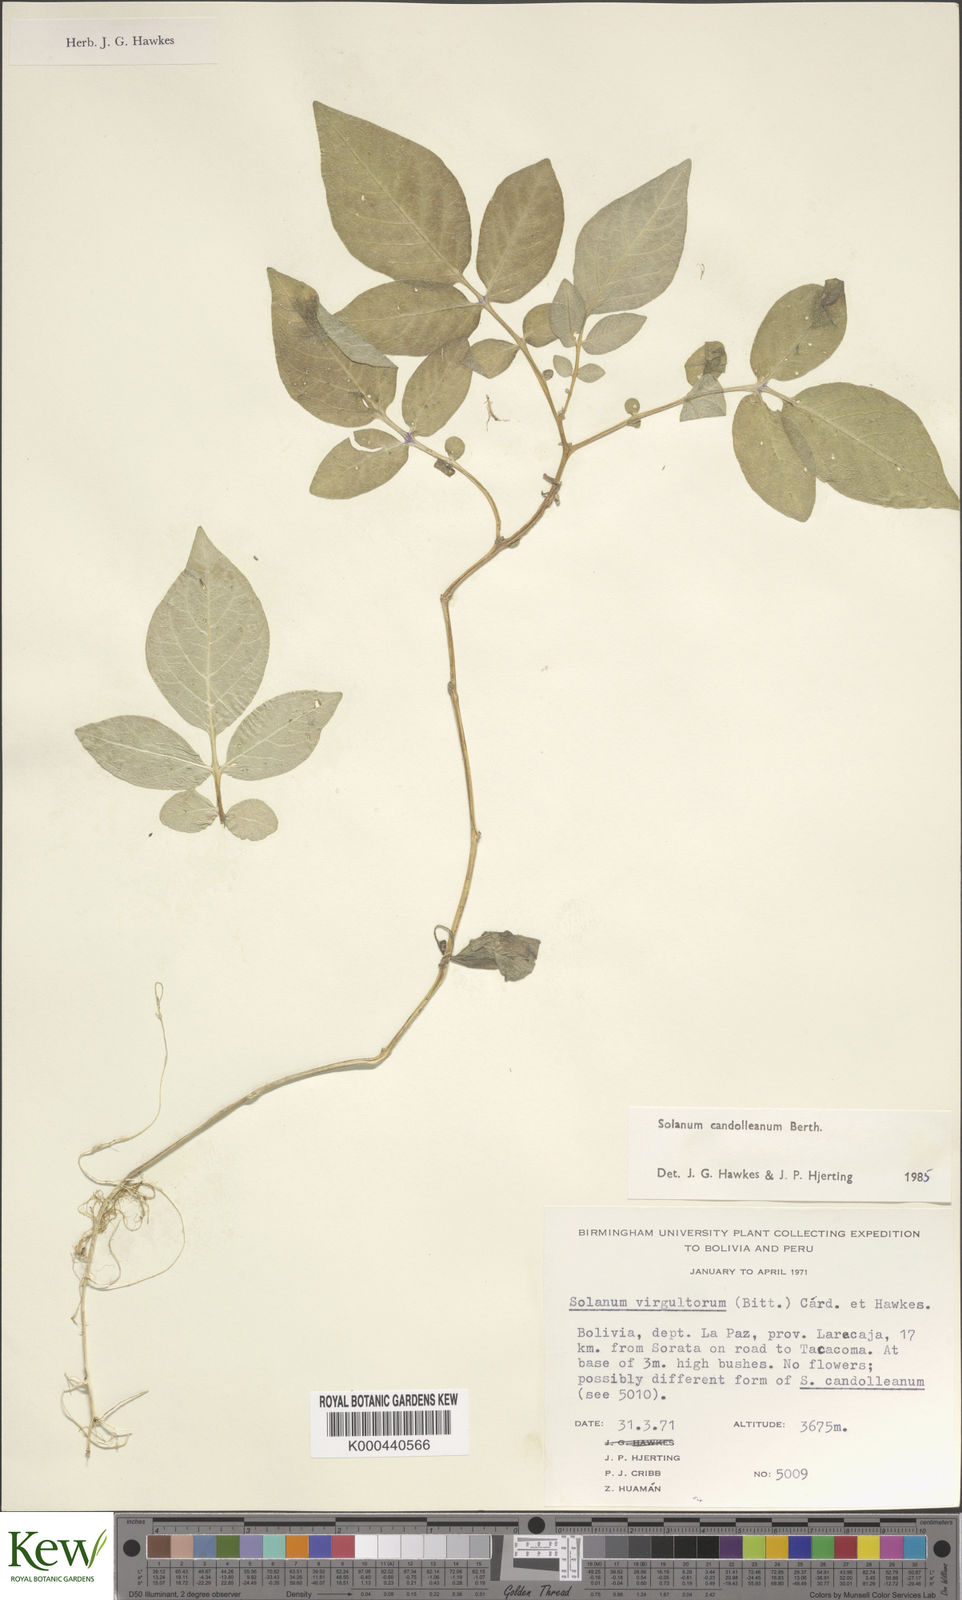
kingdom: Plantae
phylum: Tracheophyta
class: Magnoliopsida
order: Solanales
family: Solanaceae
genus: Solanum
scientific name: Solanum brevicaule
